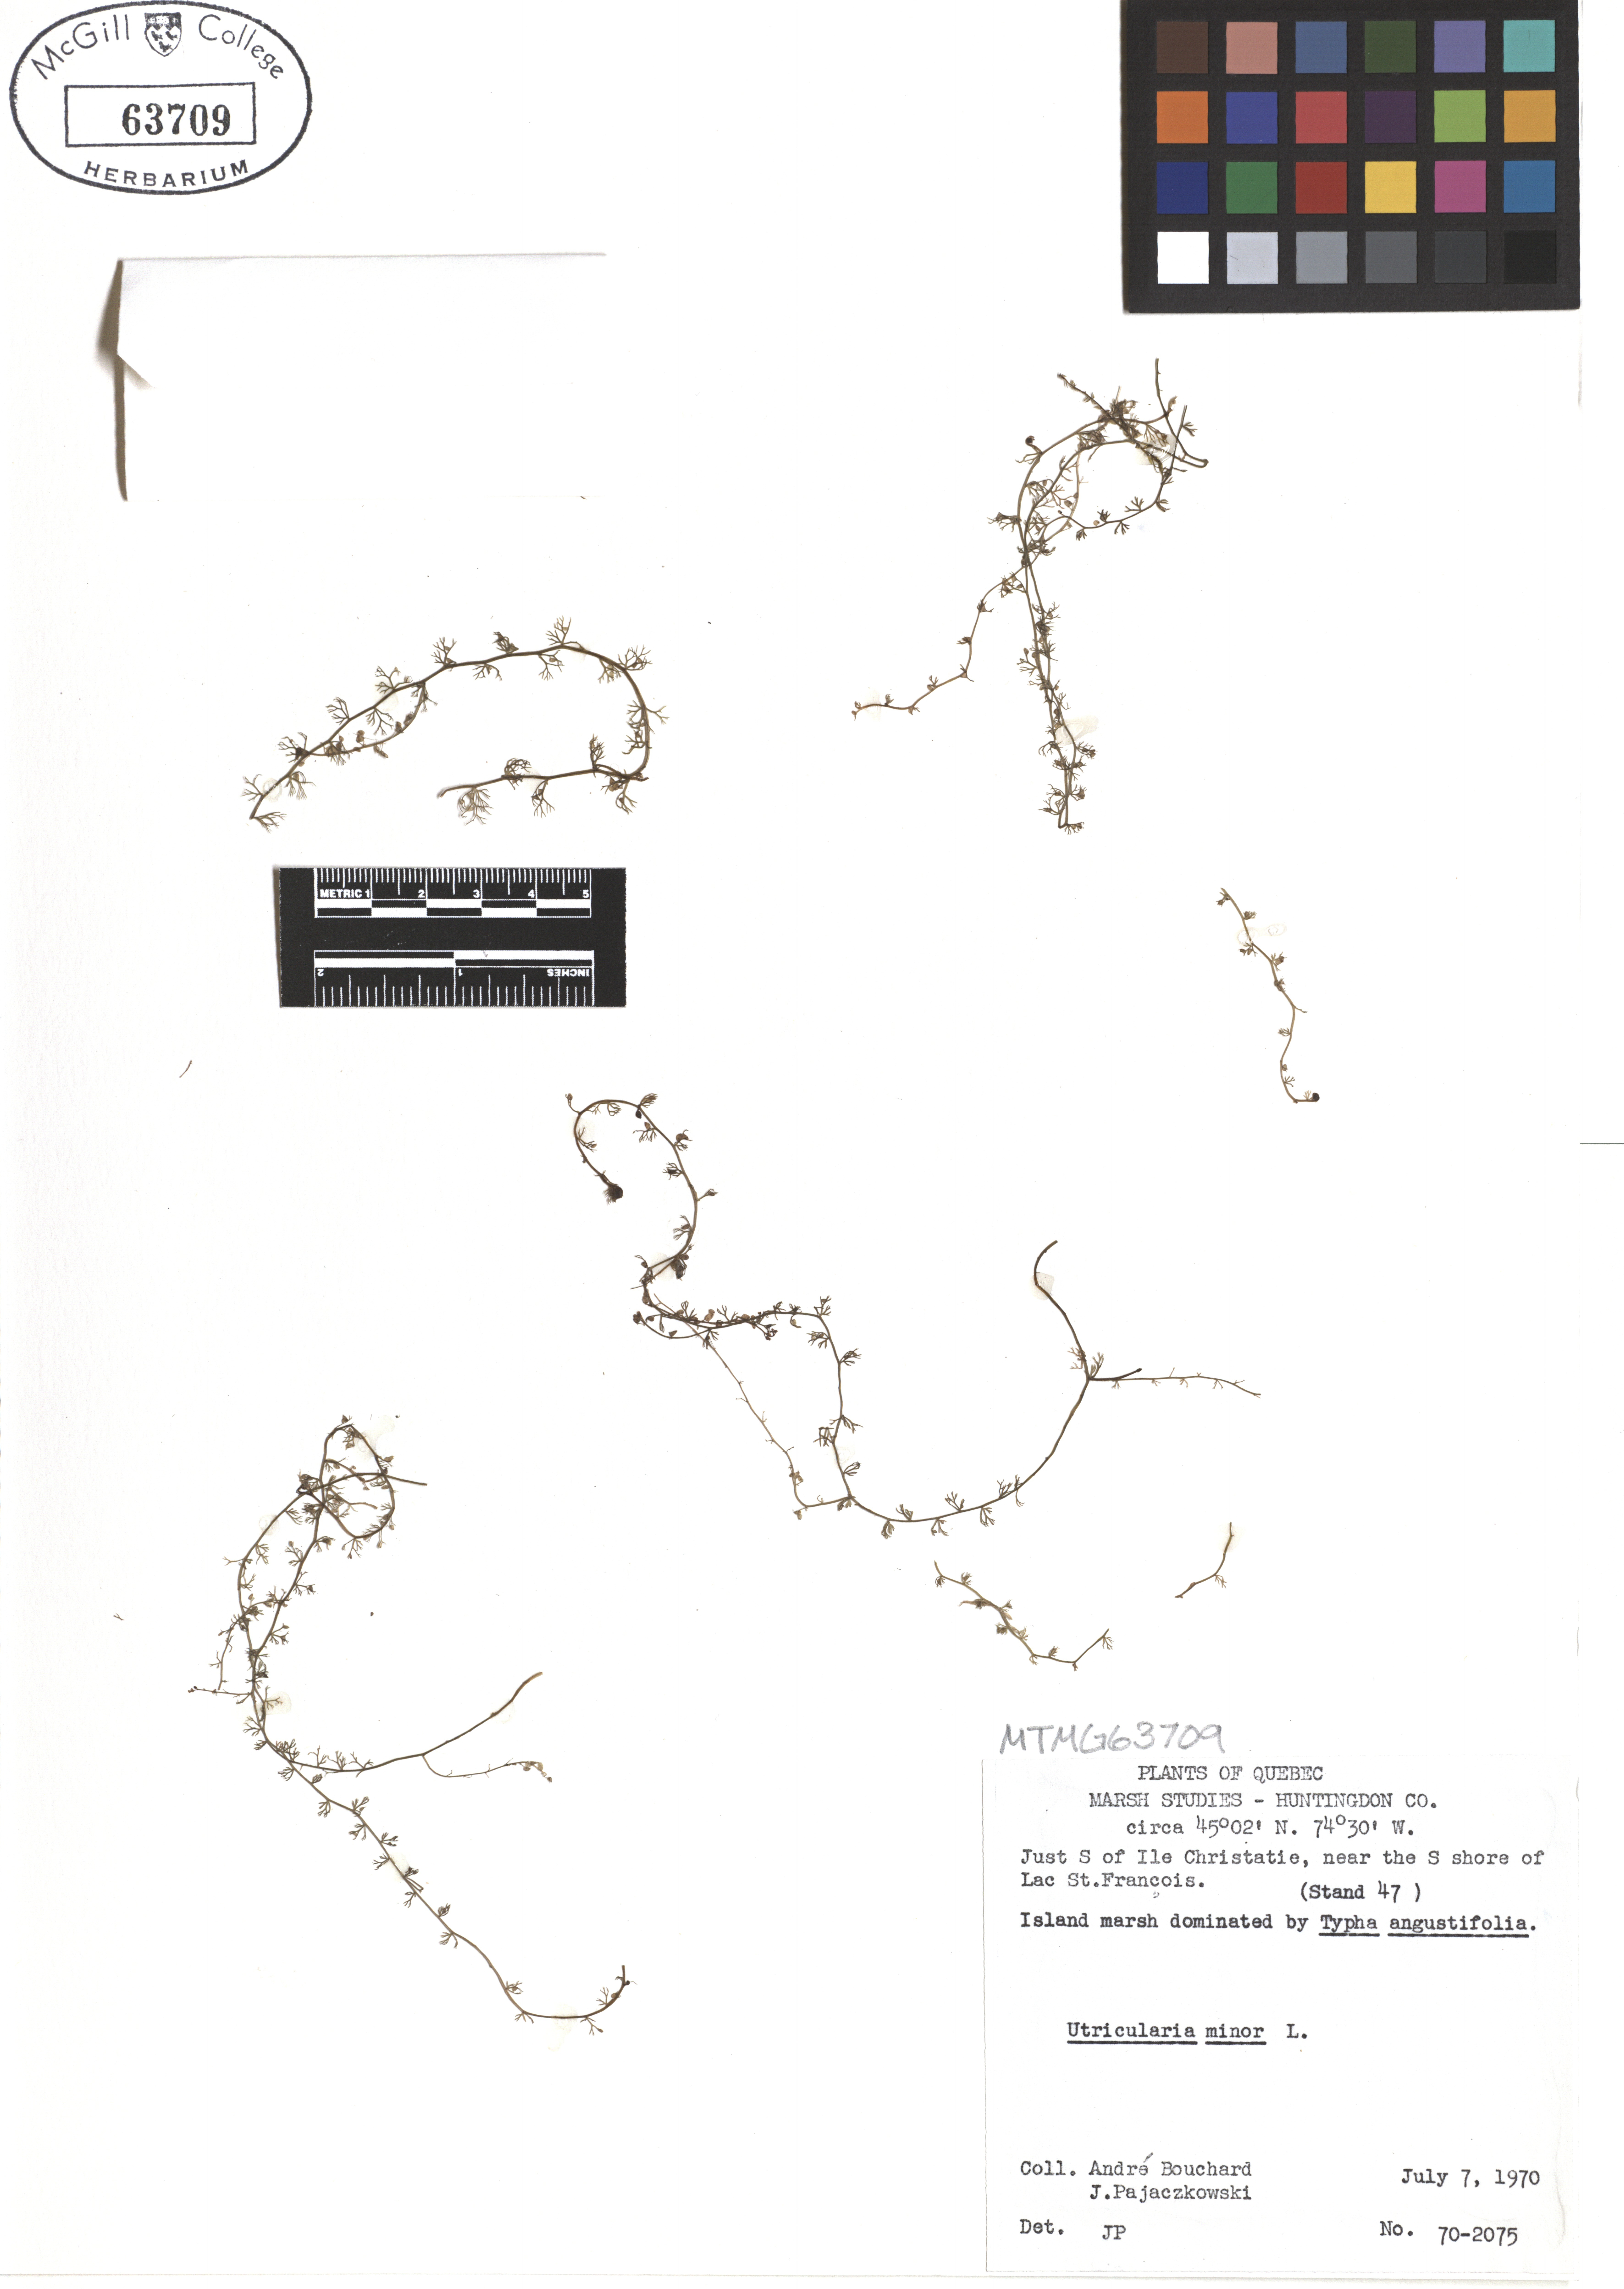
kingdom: Plantae
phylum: Tracheophyta
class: Magnoliopsida
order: Lamiales
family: Lentibulariaceae
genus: Utricularia
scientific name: Utricularia minor
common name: Lesser bladderwort
